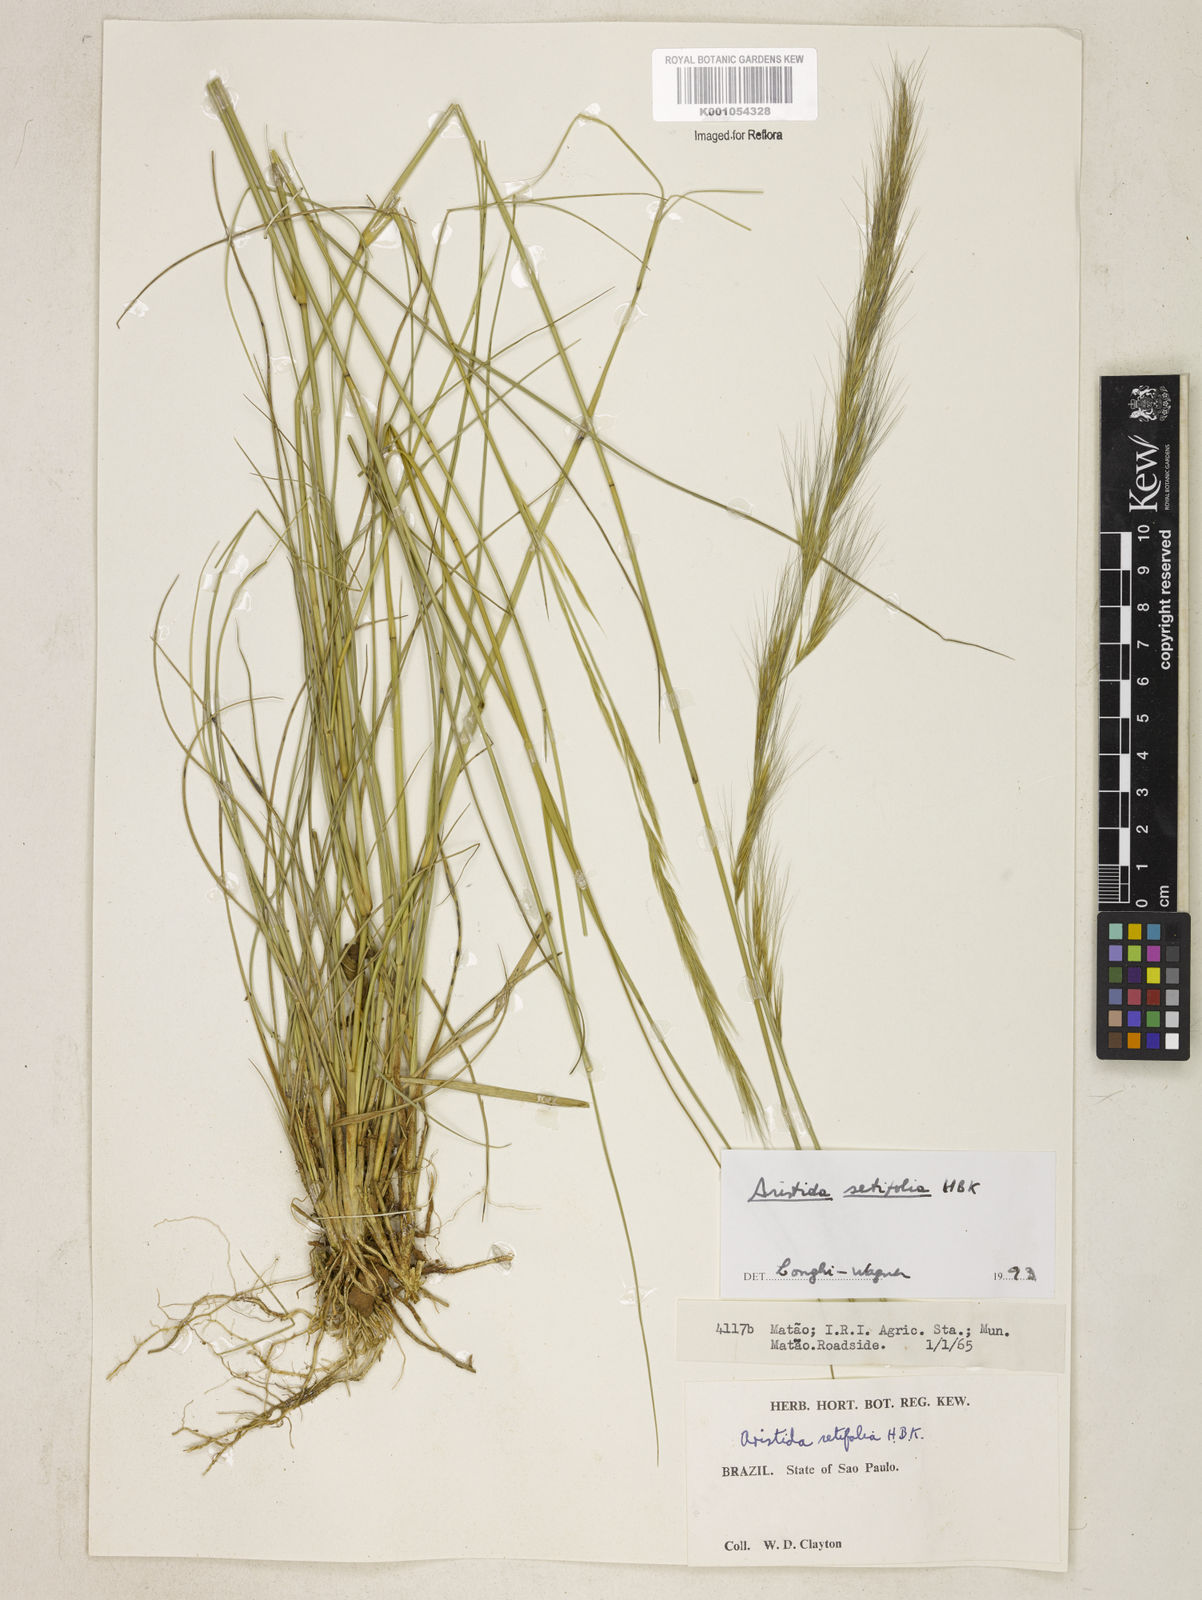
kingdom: Plantae
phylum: Tracheophyta
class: Liliopsida
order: Poales
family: Poaceae
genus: Aristida
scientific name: Aristida setifolia
